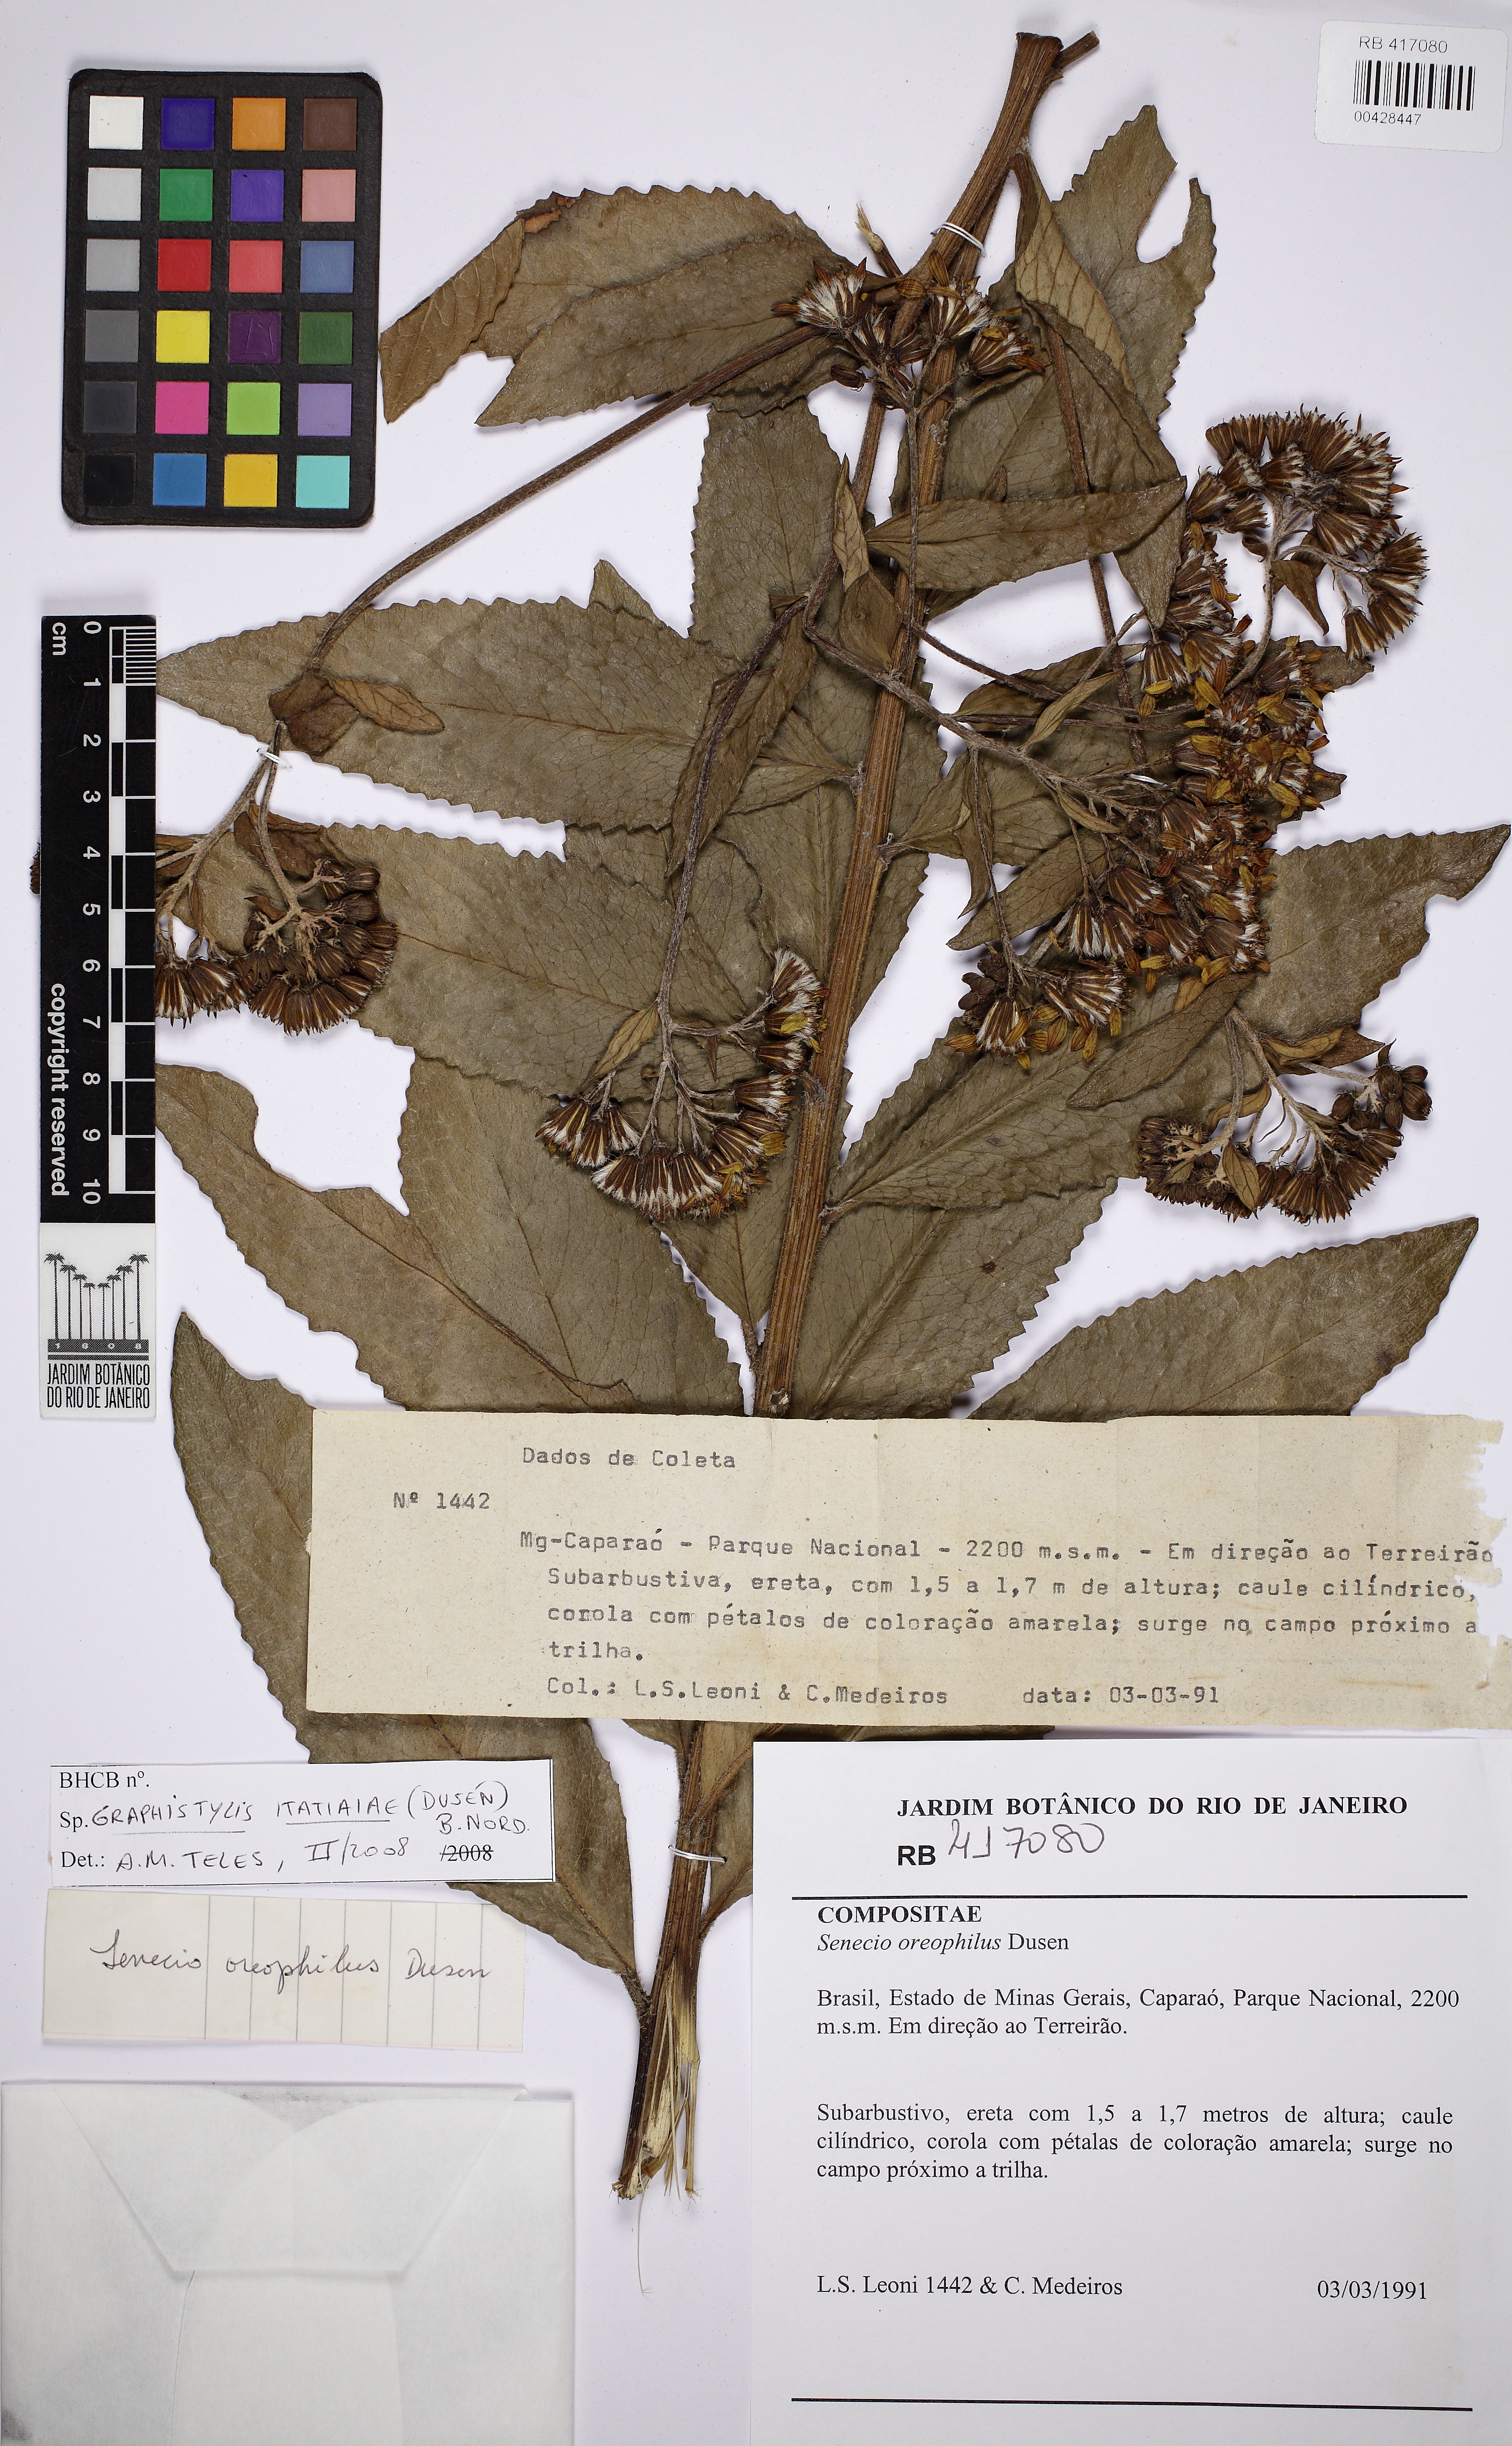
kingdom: Plantae
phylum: Tracheophyta
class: Magnoliopsida
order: Asterales
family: Asteraceae
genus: Graphistylis
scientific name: Graphistylis itatiaiae
